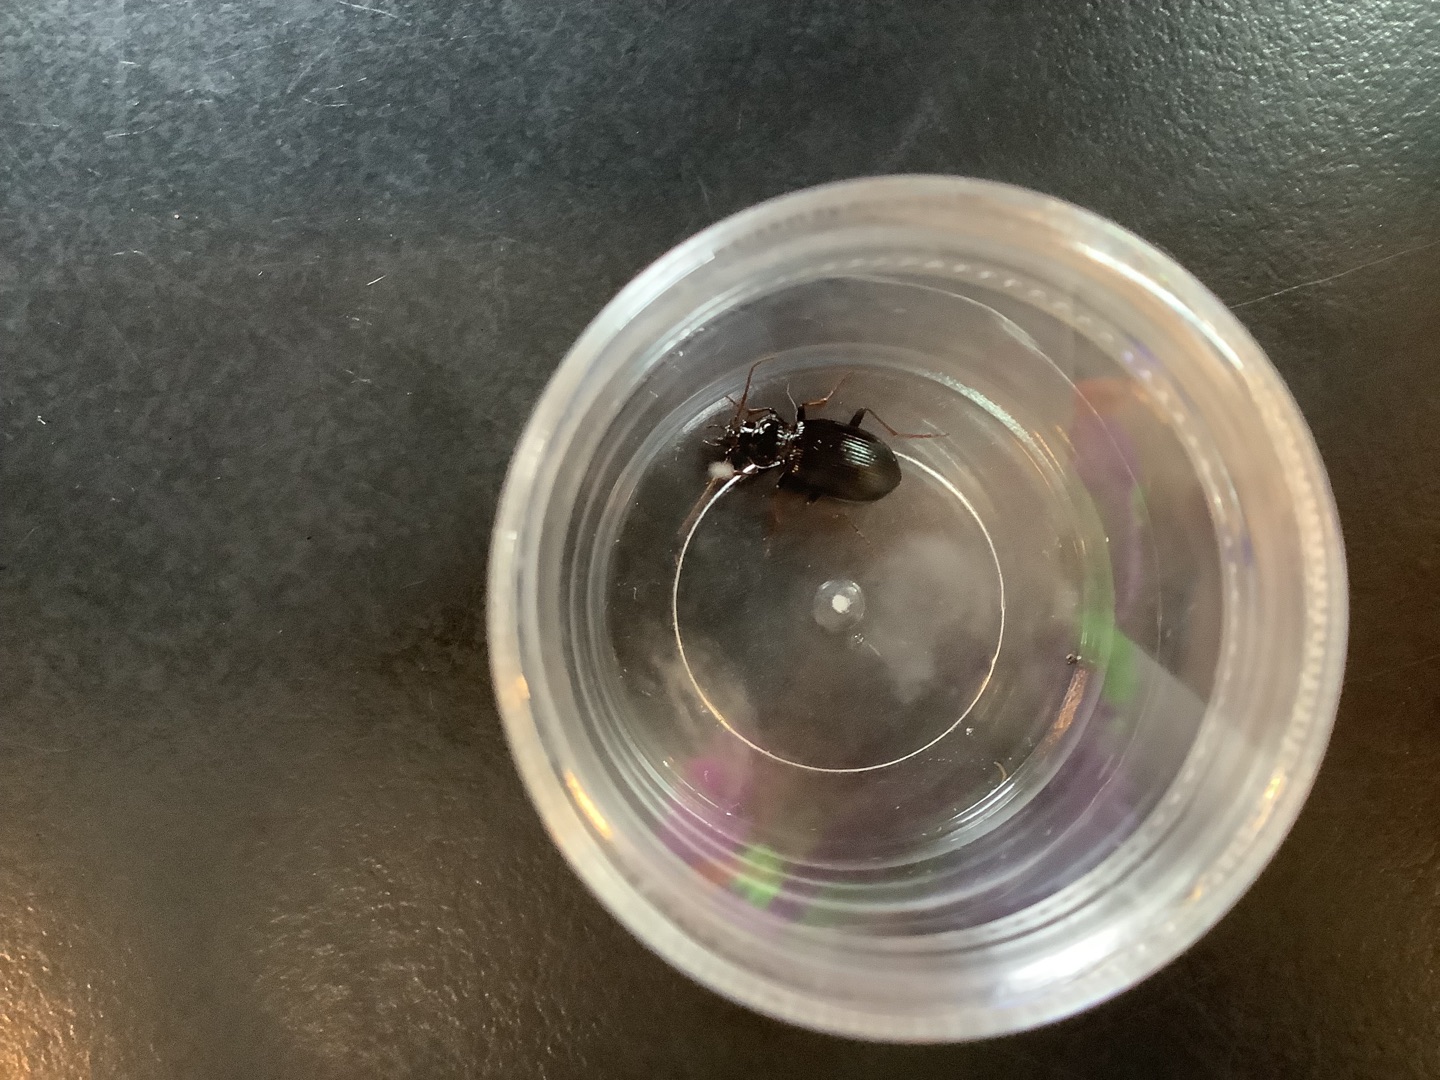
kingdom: Animalia
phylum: Arthropoda
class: Insecta
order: Coleoptera
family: Carabidae
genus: Nebria
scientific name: Nebria
